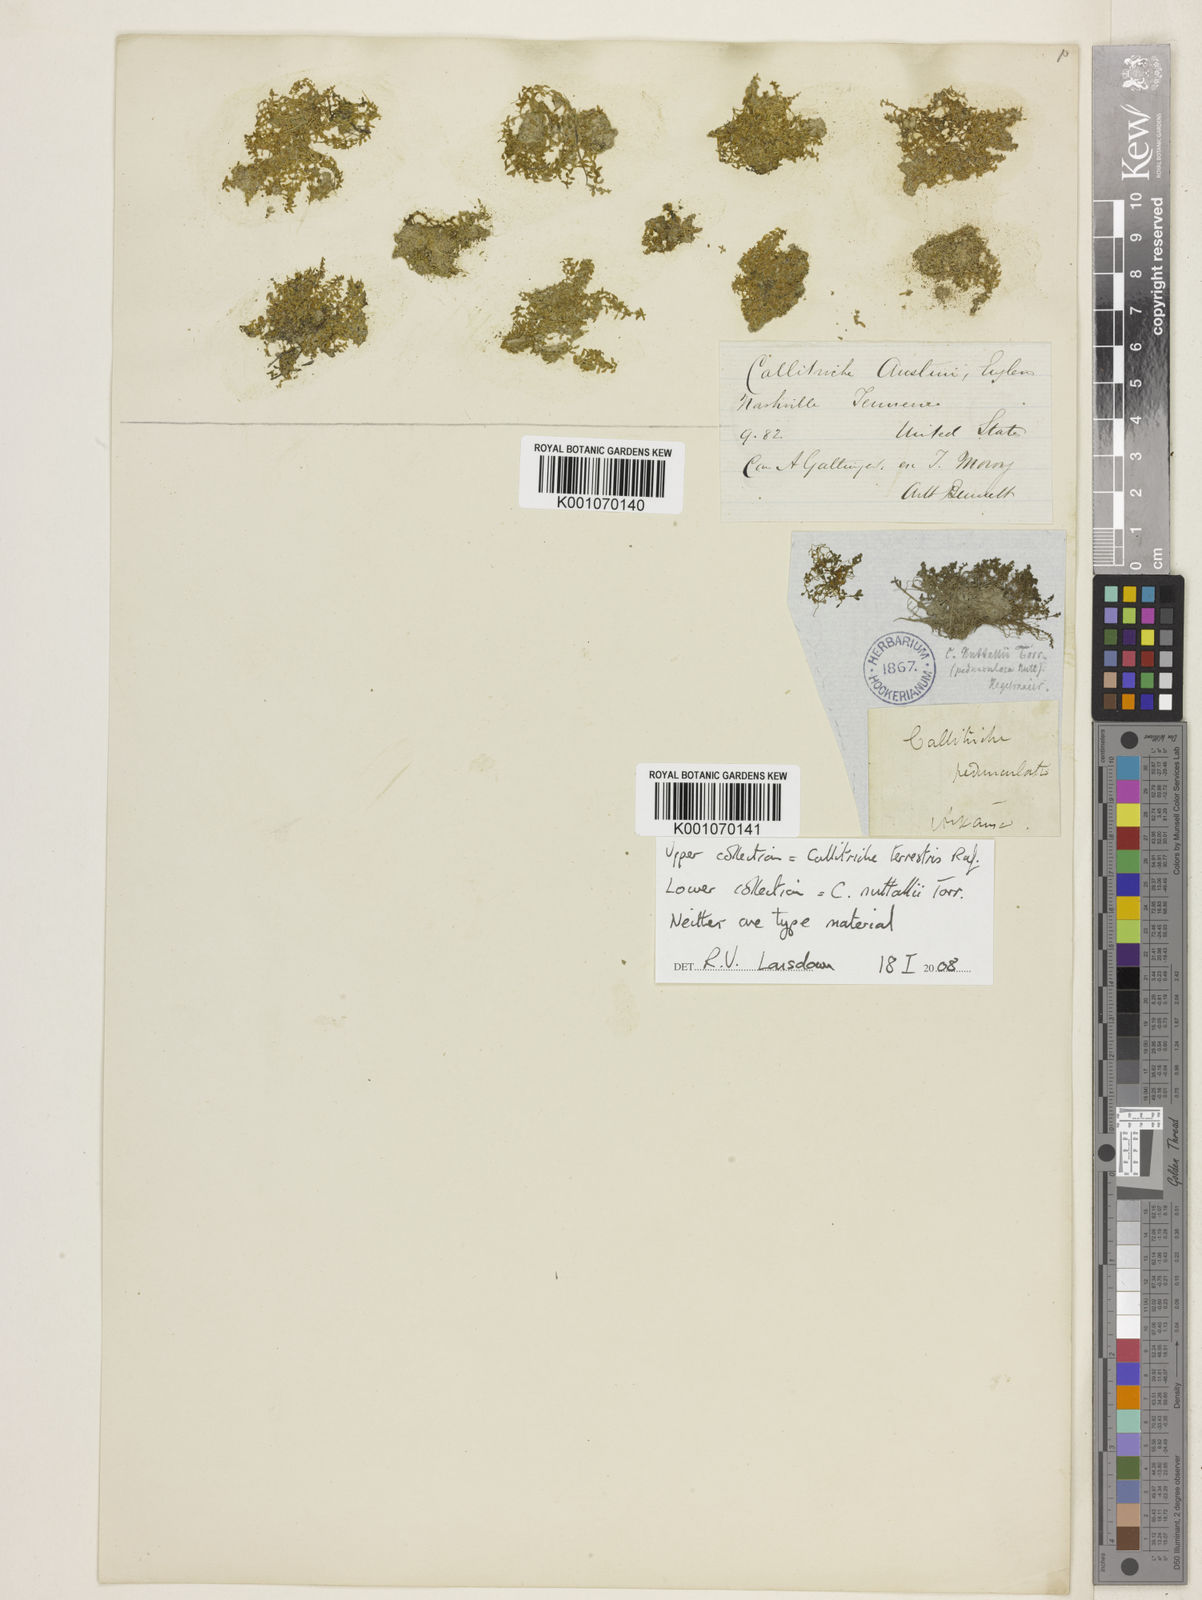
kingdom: Plantae
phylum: Tracheophyta
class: Magnoliopsida
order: Lamiales
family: Plantaginaceae
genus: Callitriche
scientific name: Callitriche pedunculosa
